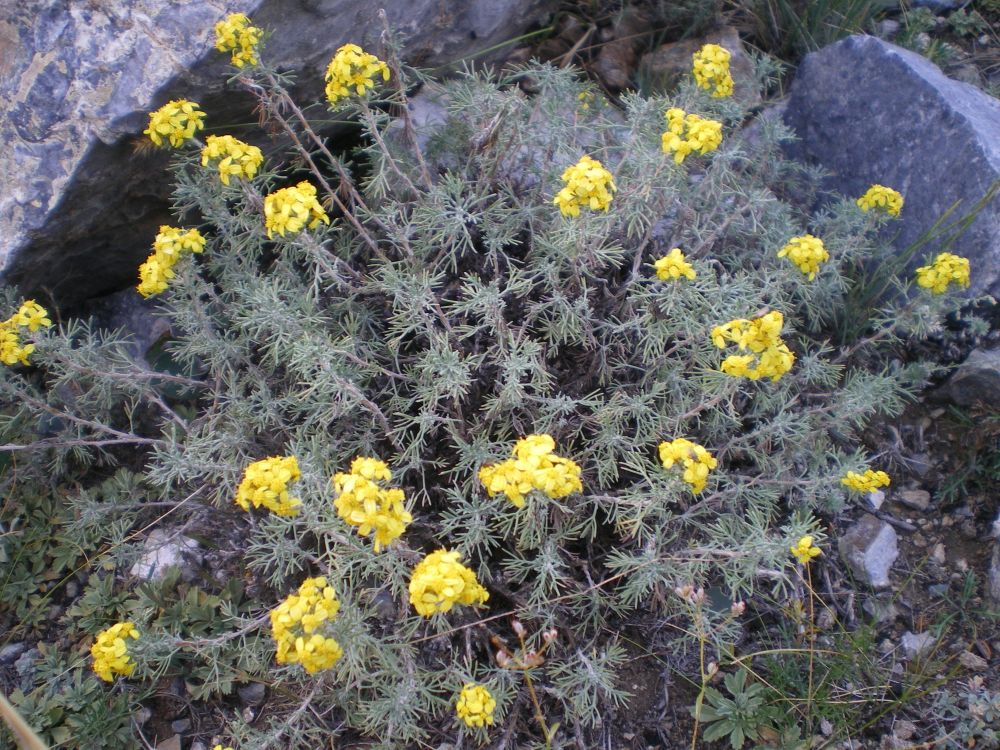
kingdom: Plantae
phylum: Tracheophyta
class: Magnoliopsida
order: Asterales
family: Asteraceae
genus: Brachanthemum
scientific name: Brachanthemum krylovii
